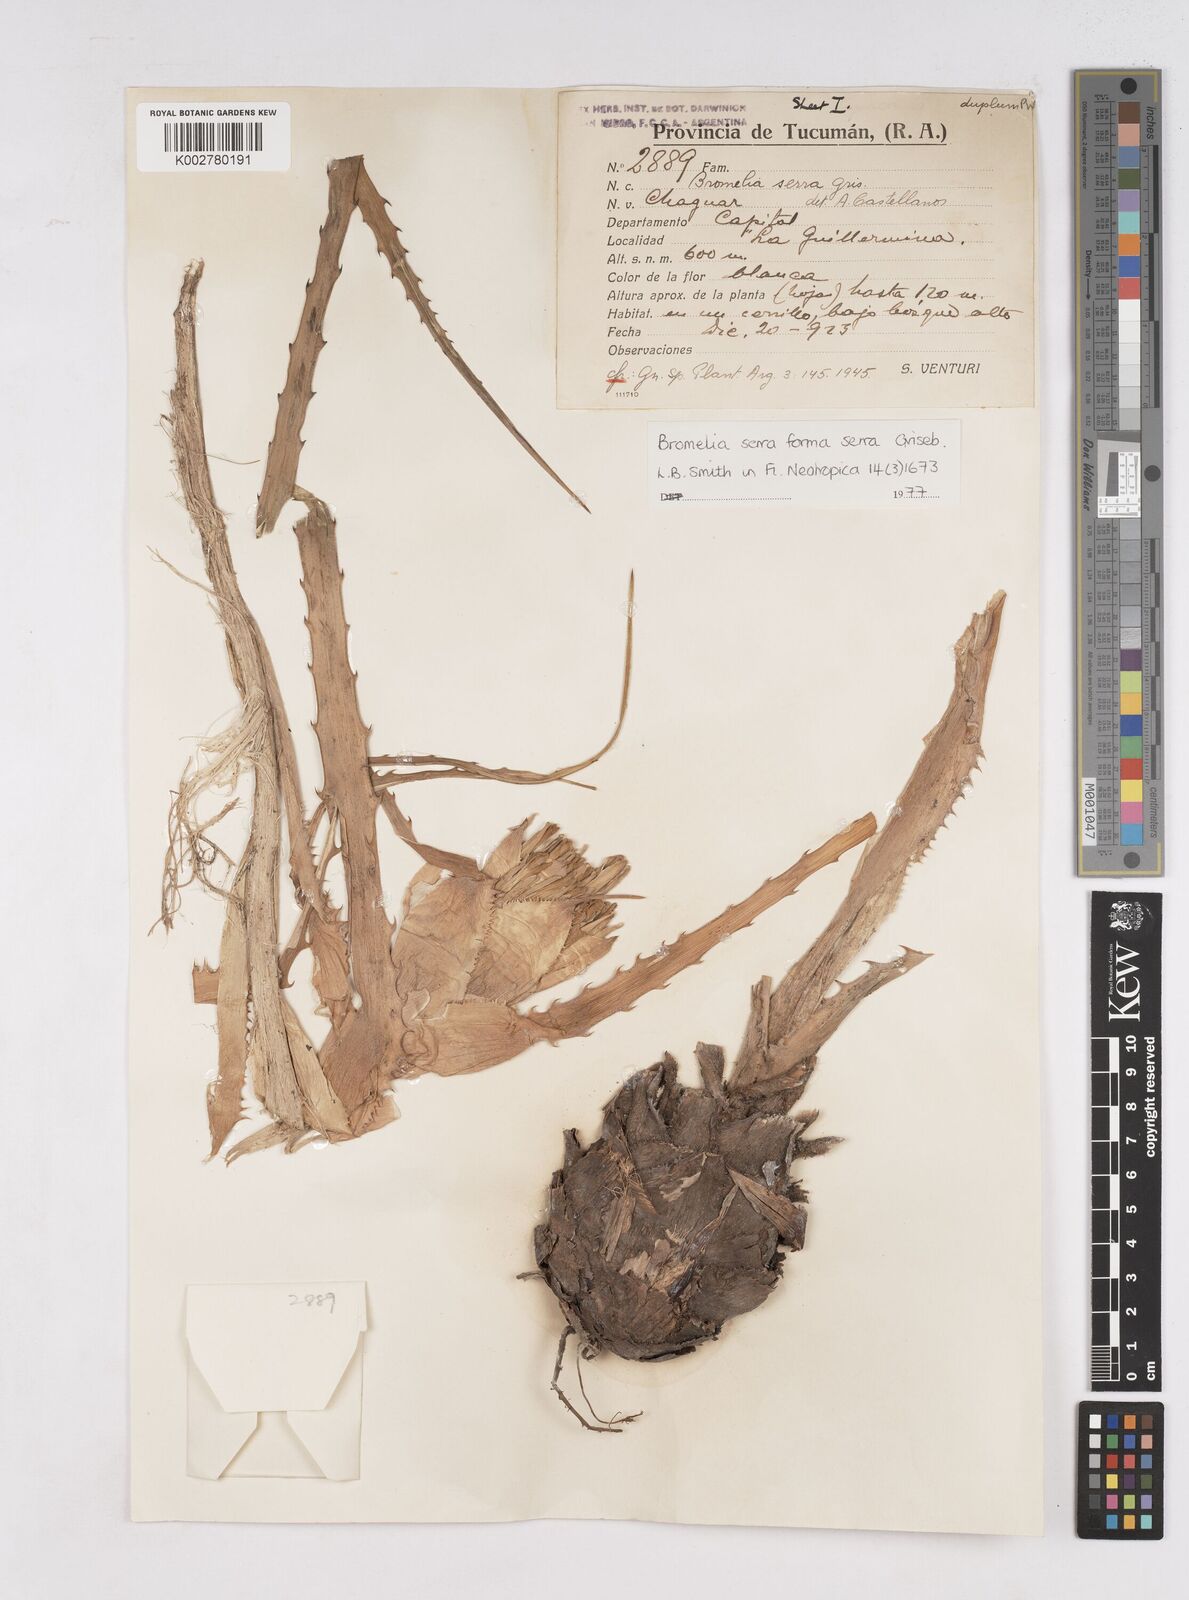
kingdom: Plantae
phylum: Tracheophyta
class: Liliopsida
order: Poales
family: Bromeliaceae
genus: Bromelia
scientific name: Bromelia serra
